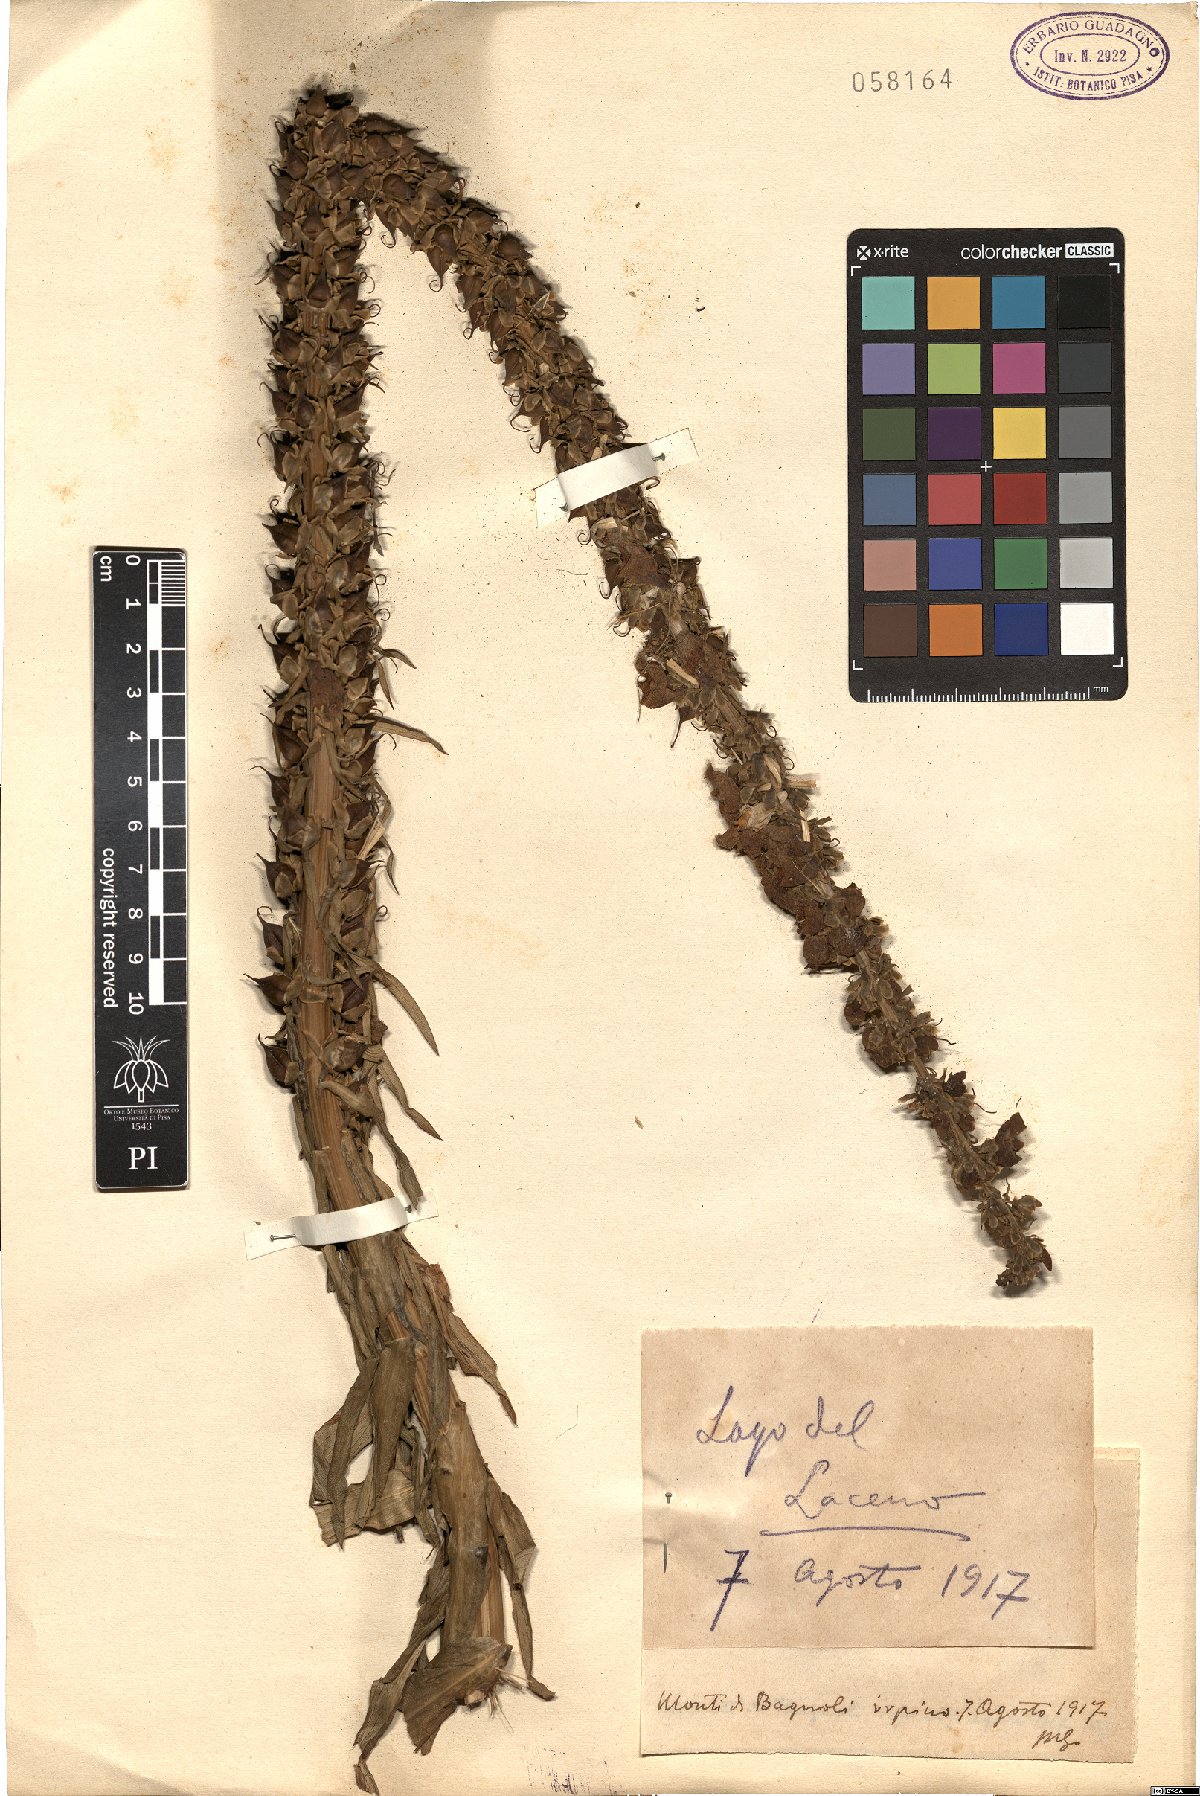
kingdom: Plantae
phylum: Tracheophyta
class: Magnoliopsida
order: Lamiales
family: Plantaginaceae
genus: Digitalis
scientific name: Digitalis
